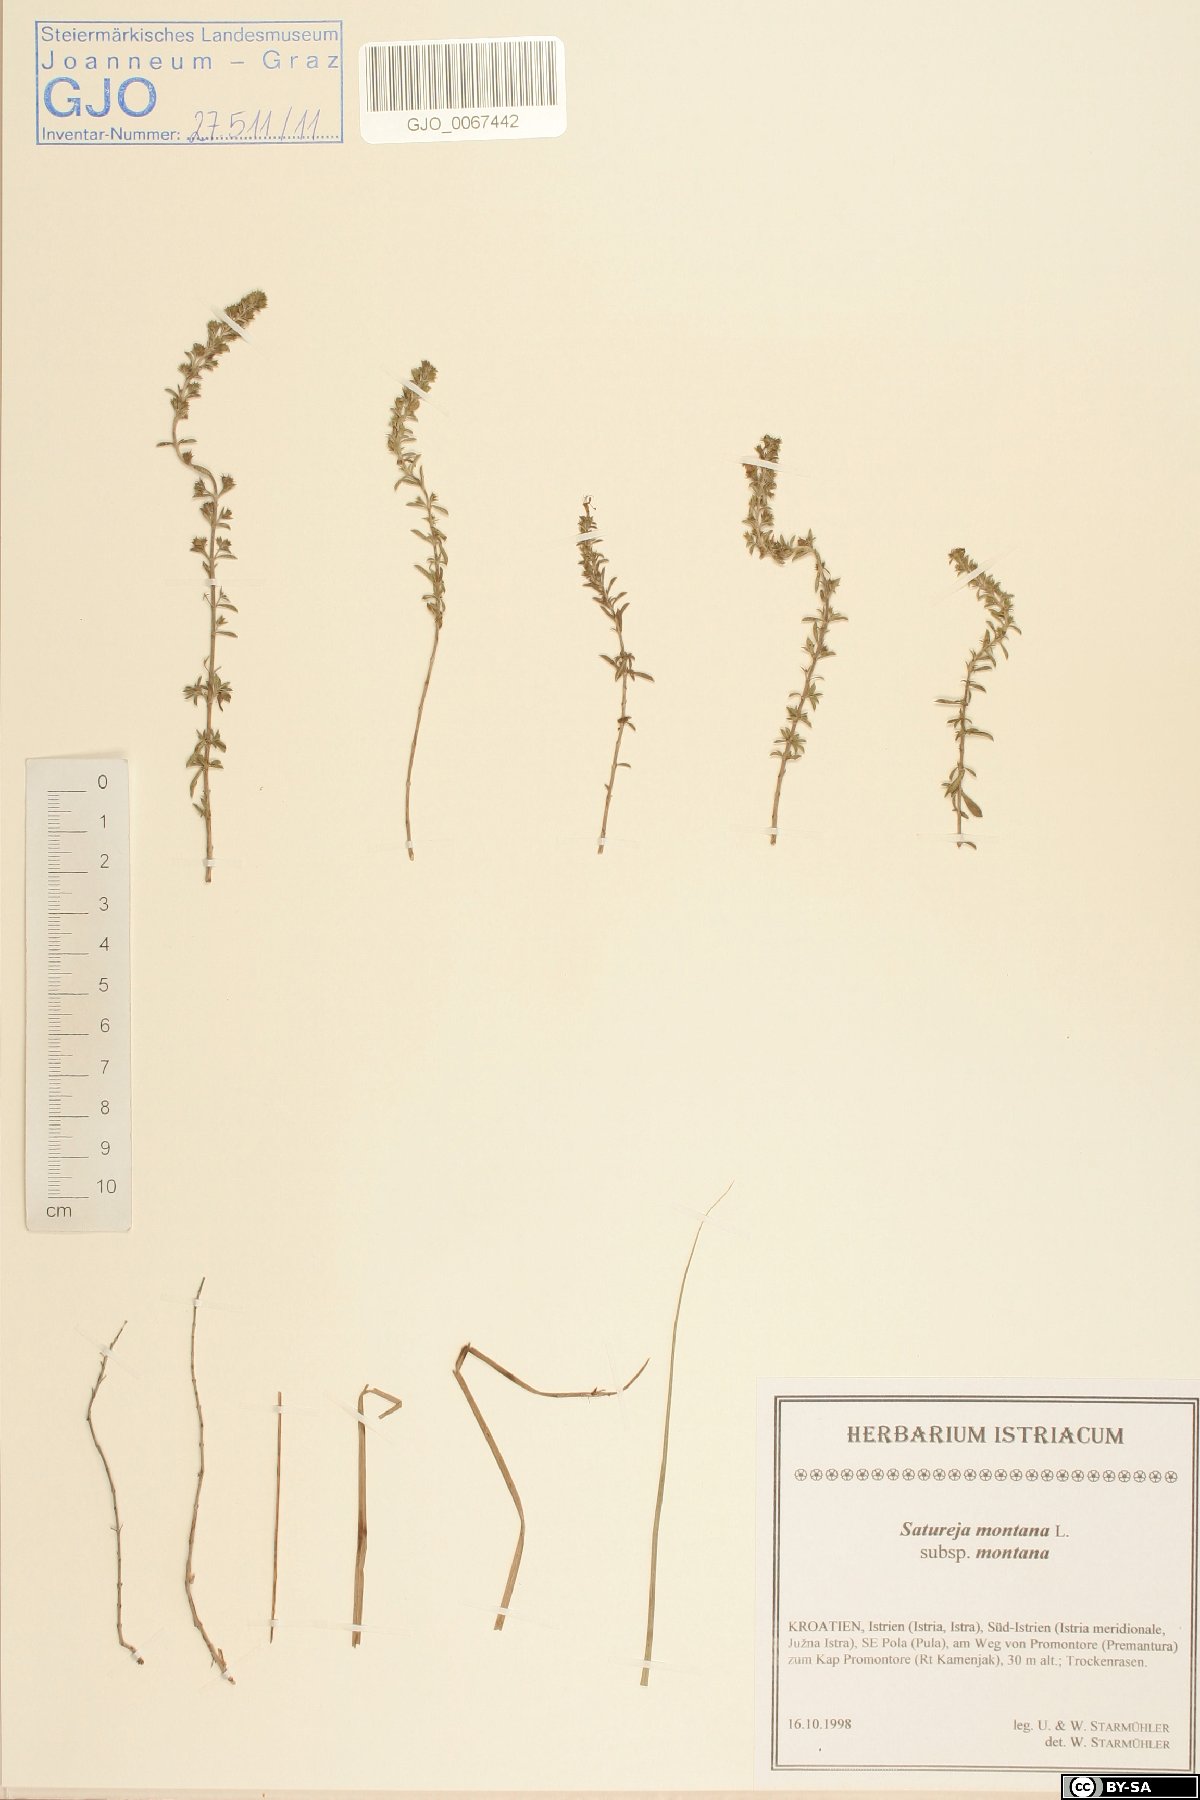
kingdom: Plantae
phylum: Tracheophyta
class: Magnoliopsida
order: Lamiales
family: Lamiaceae
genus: Satureja
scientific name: Satureja montana
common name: Winter savory
